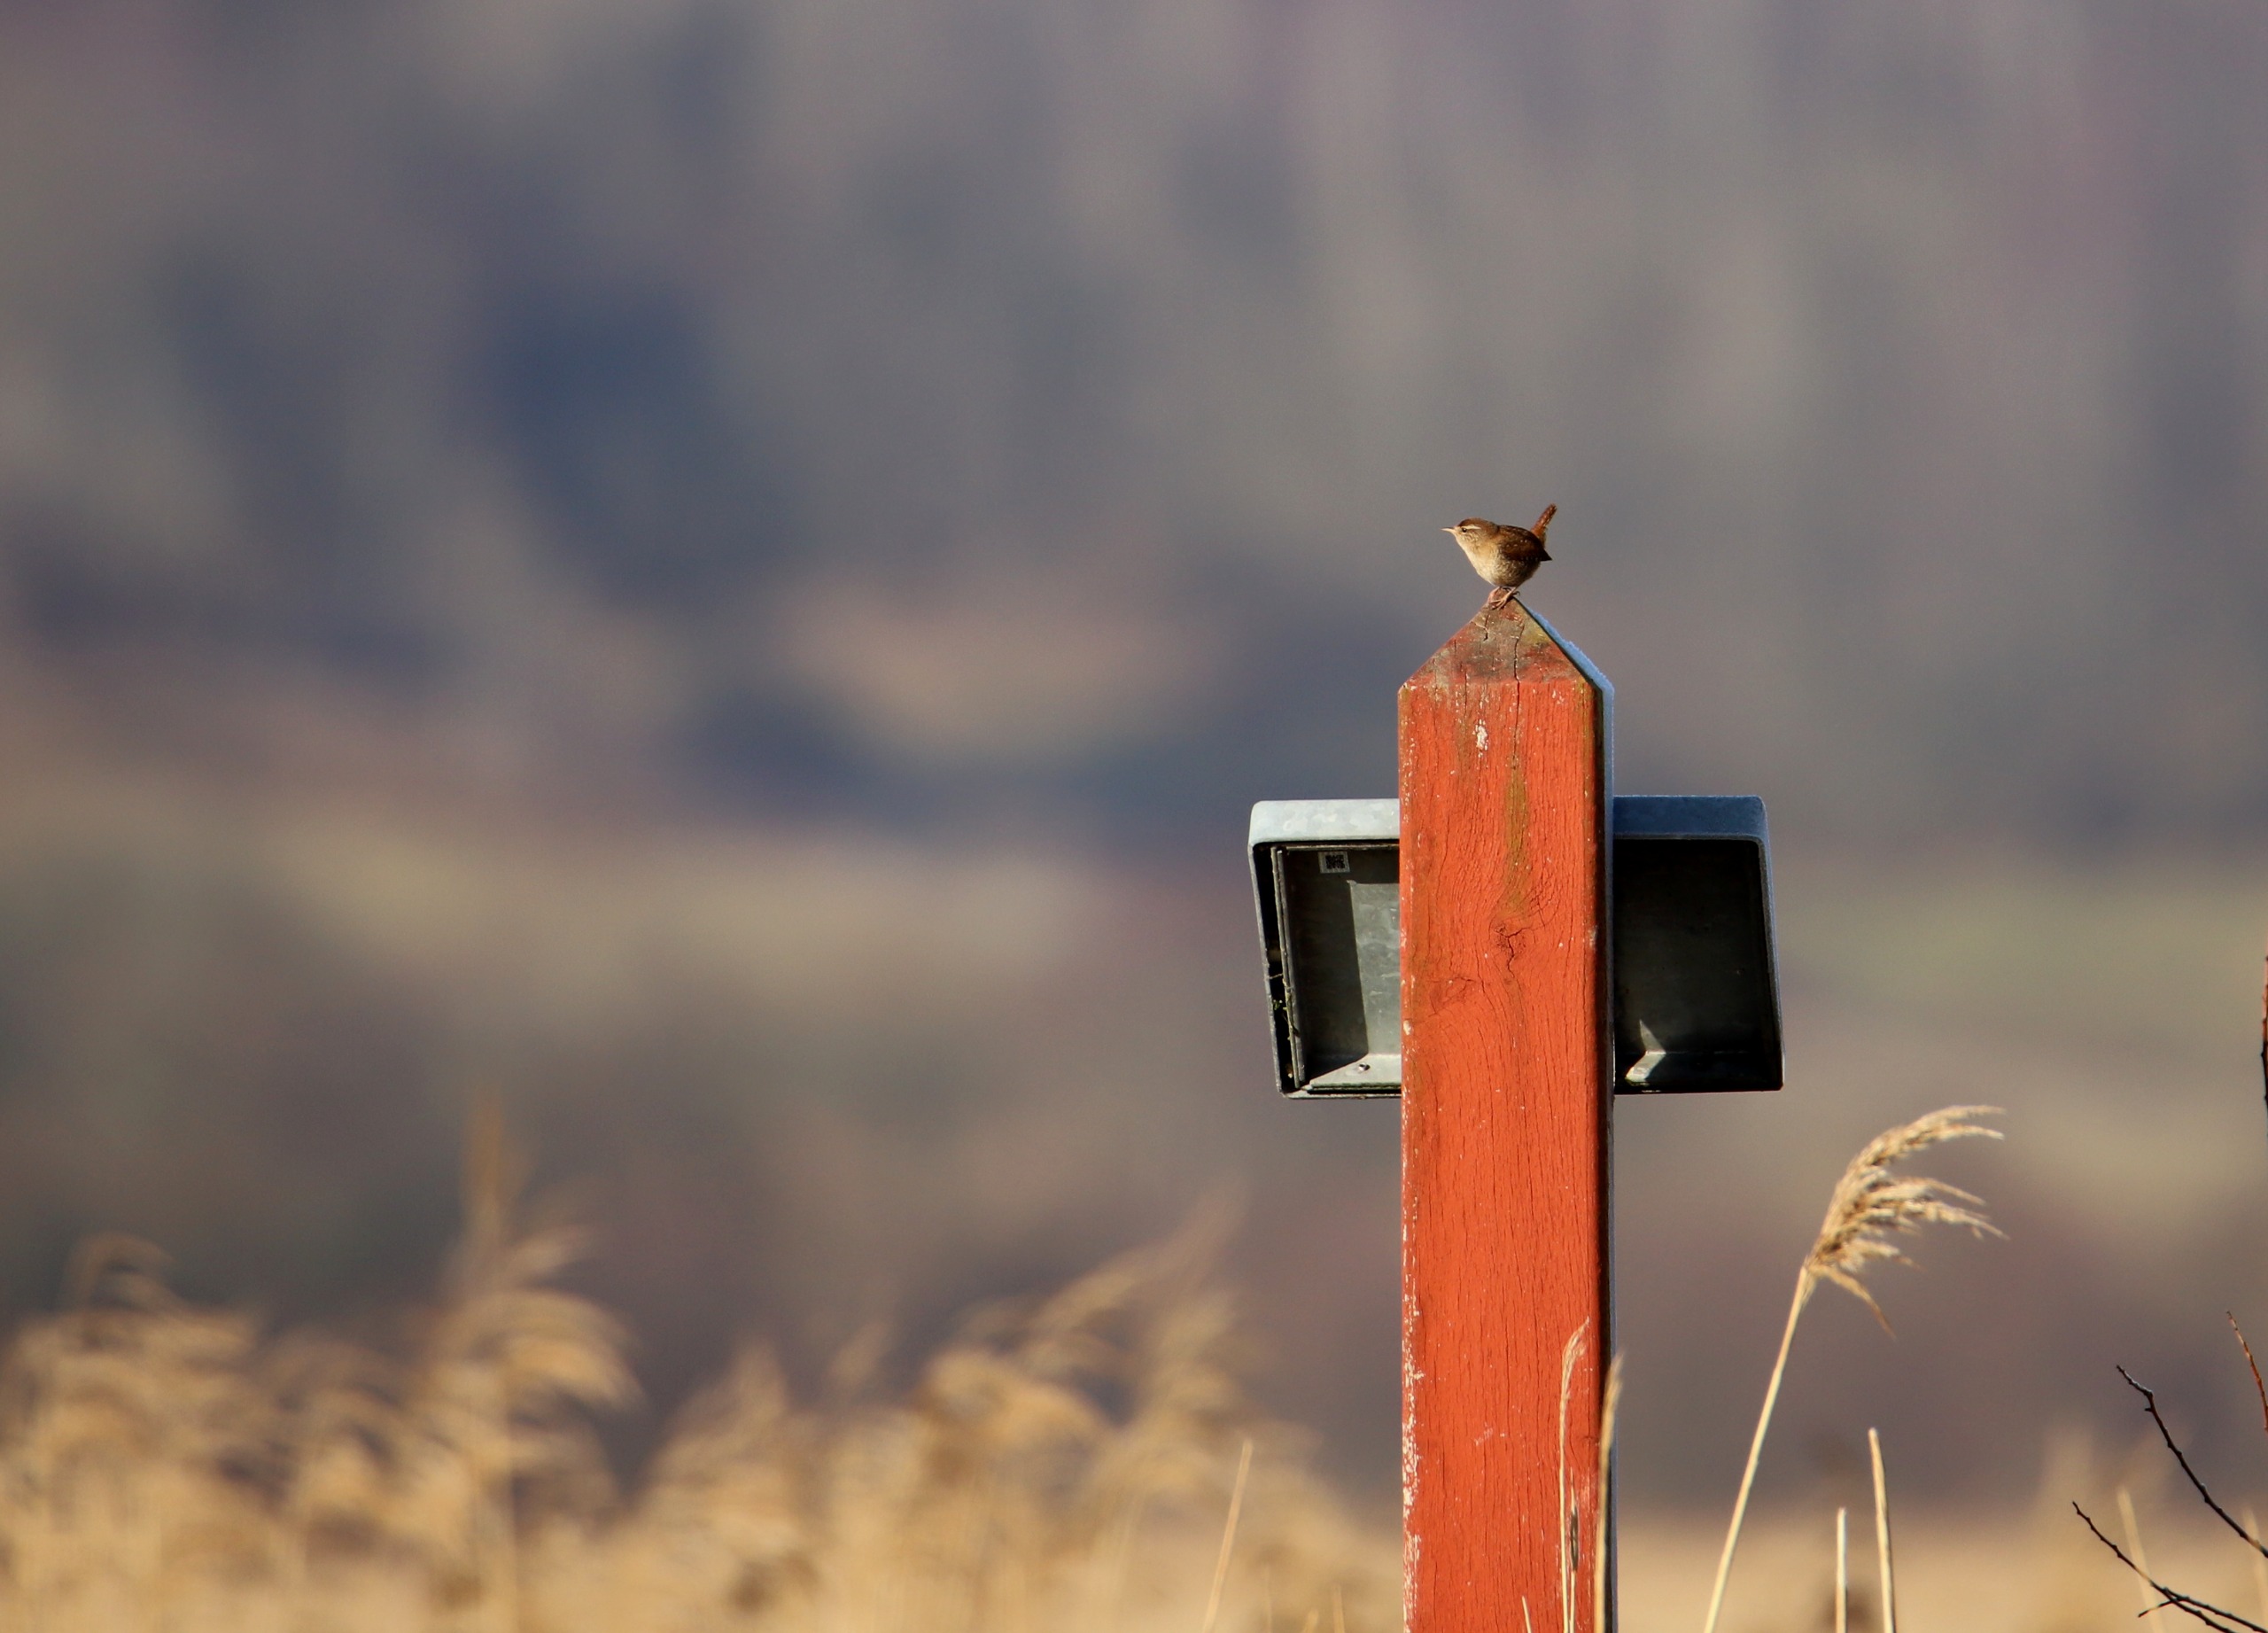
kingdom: Animalia
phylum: Chordata
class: Aves
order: Passeriformes
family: Troglodytidae
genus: Troglodytes
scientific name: Troglodytes troglodytes
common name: Gærdesmutte
